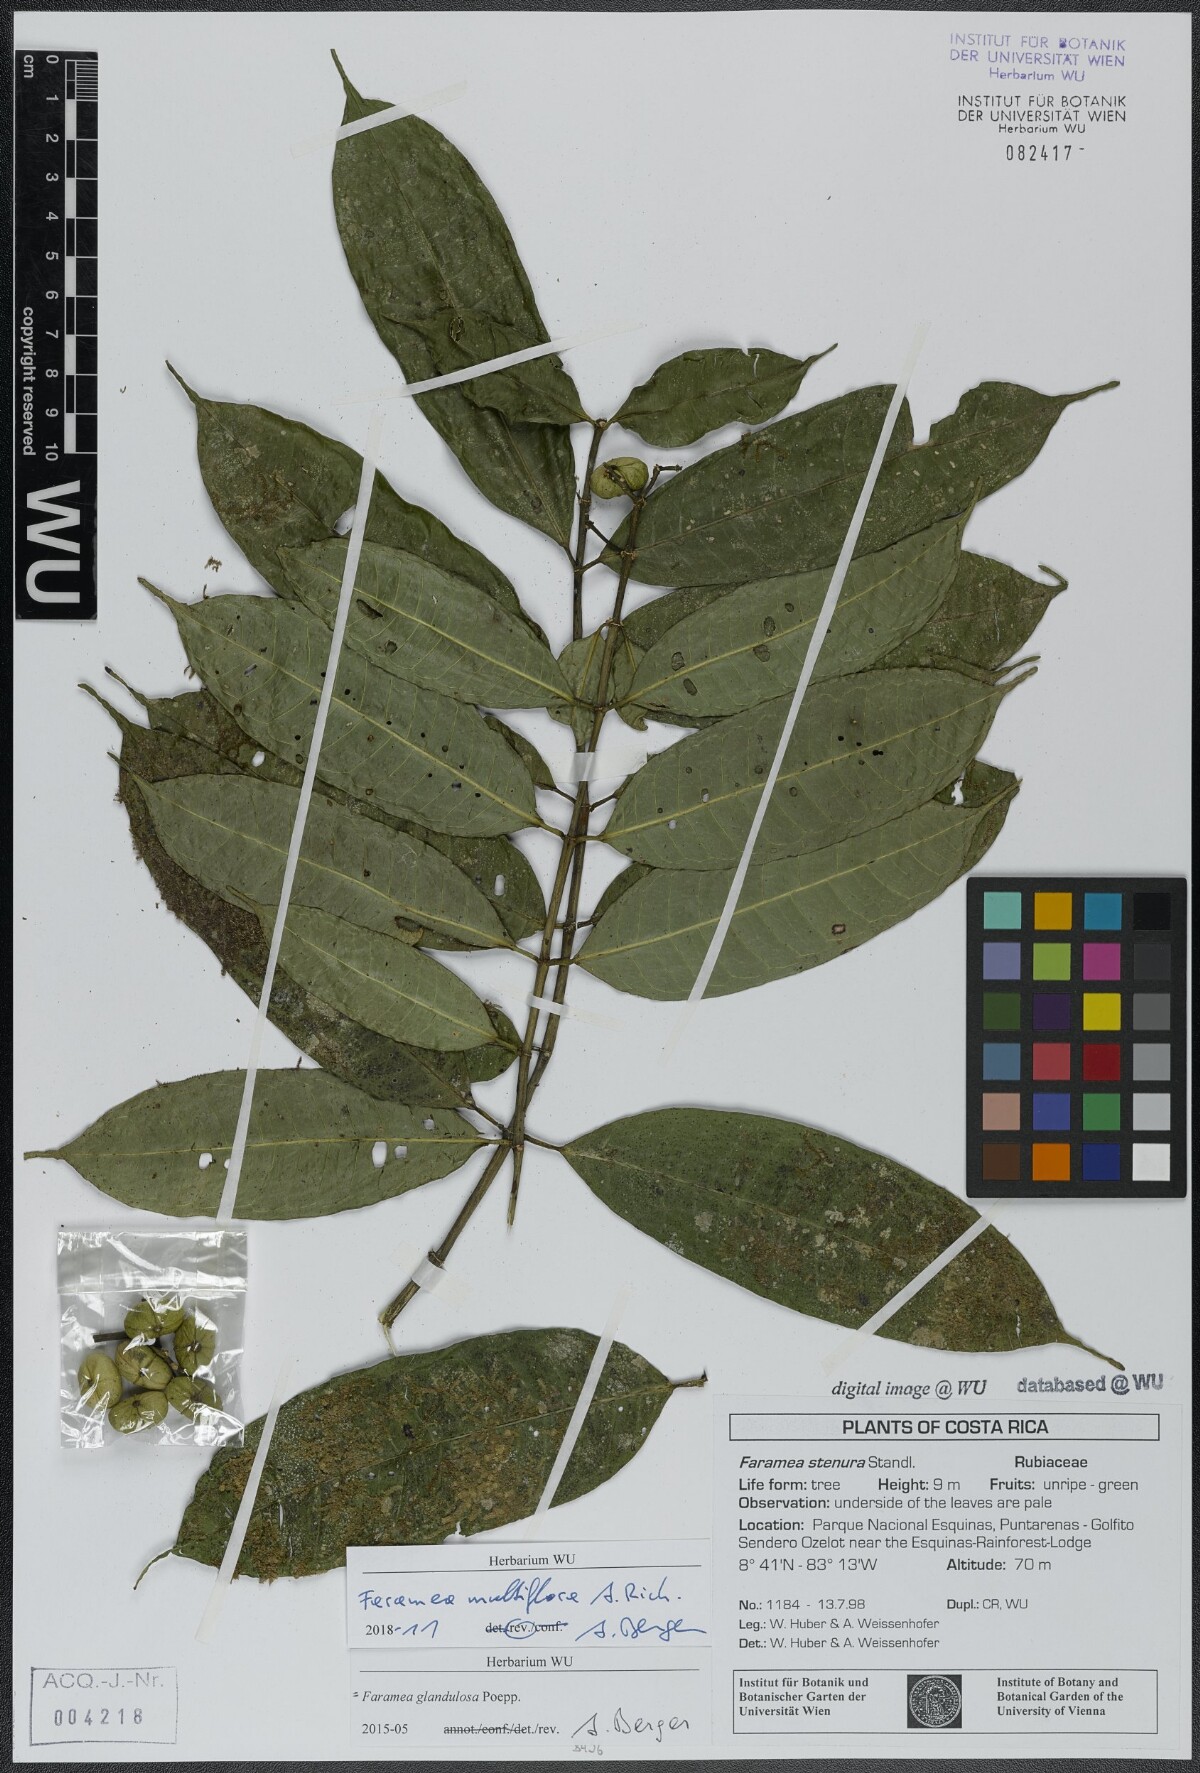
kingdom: Plantae
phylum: Tracheophyta
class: Magnoliopsida
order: Gentianales
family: Rubiaceae
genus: Faramea
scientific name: Faramea multiflora
